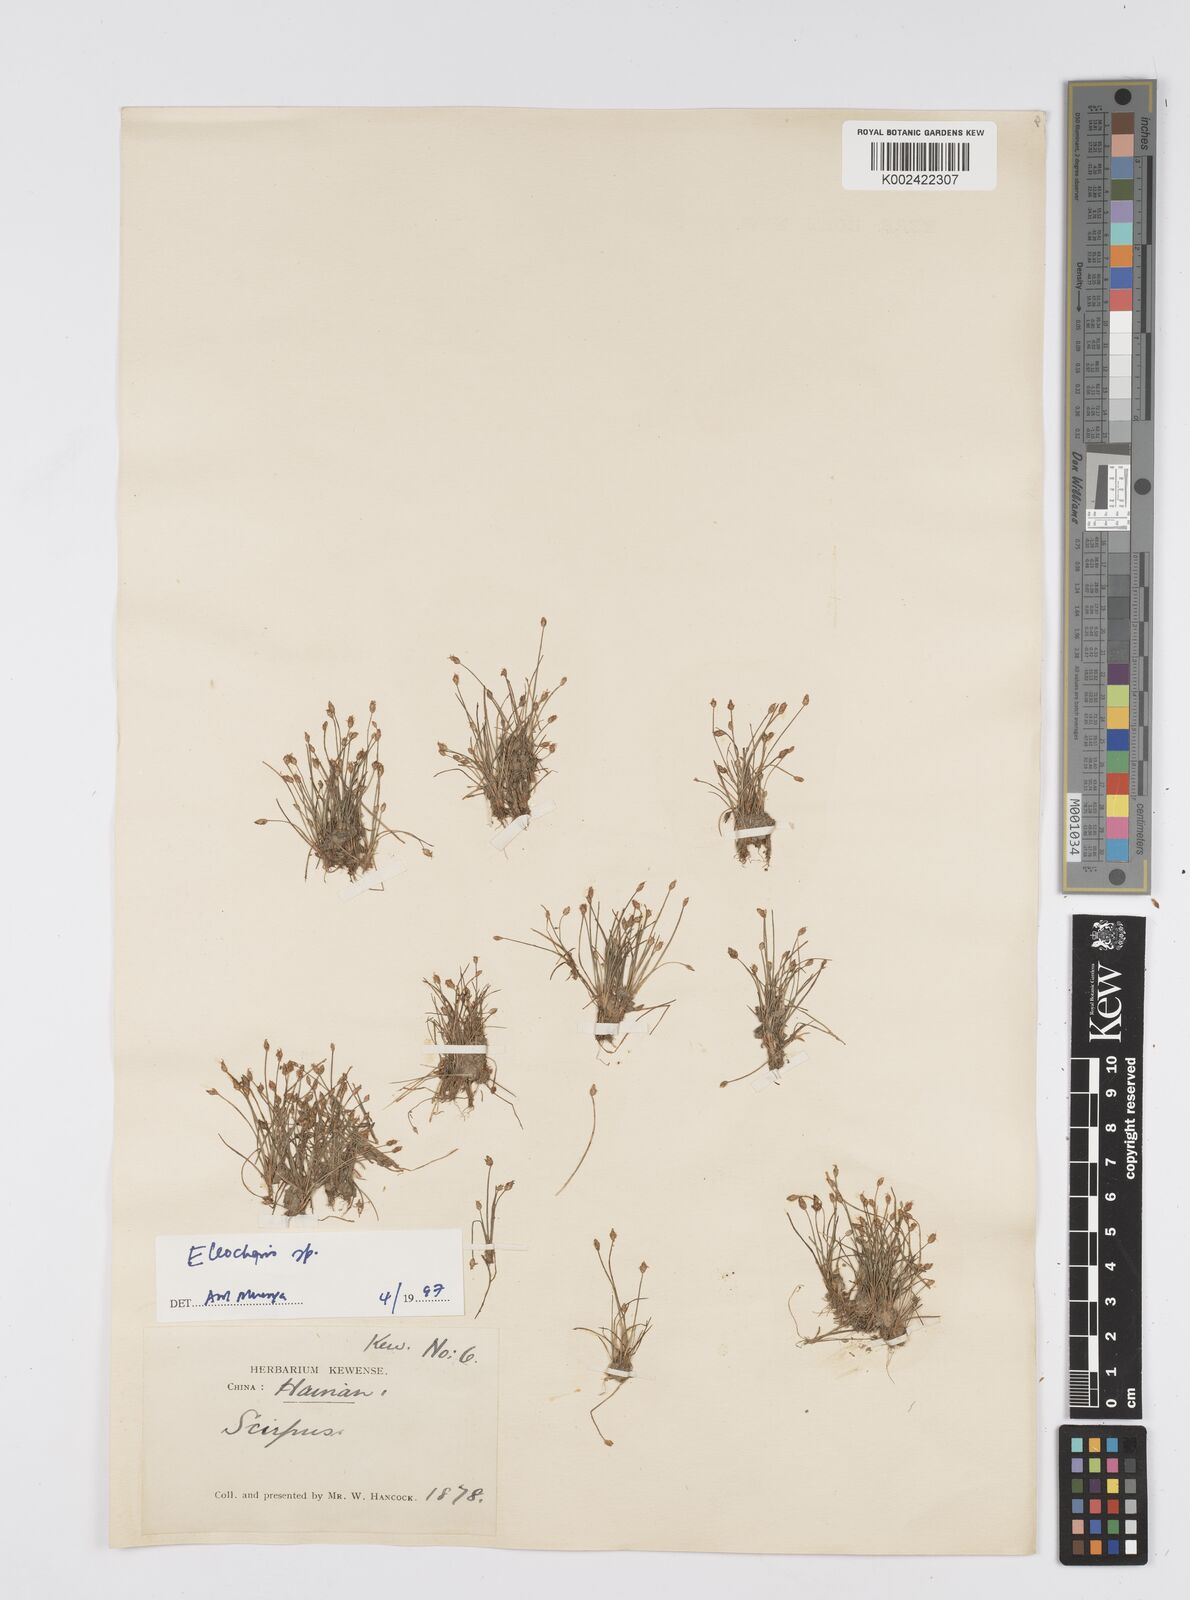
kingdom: Plantae
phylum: Tracheophyta
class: Liliopsida
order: Poales
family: Cyperaceae
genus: Eleocharis
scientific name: Eleocharis
